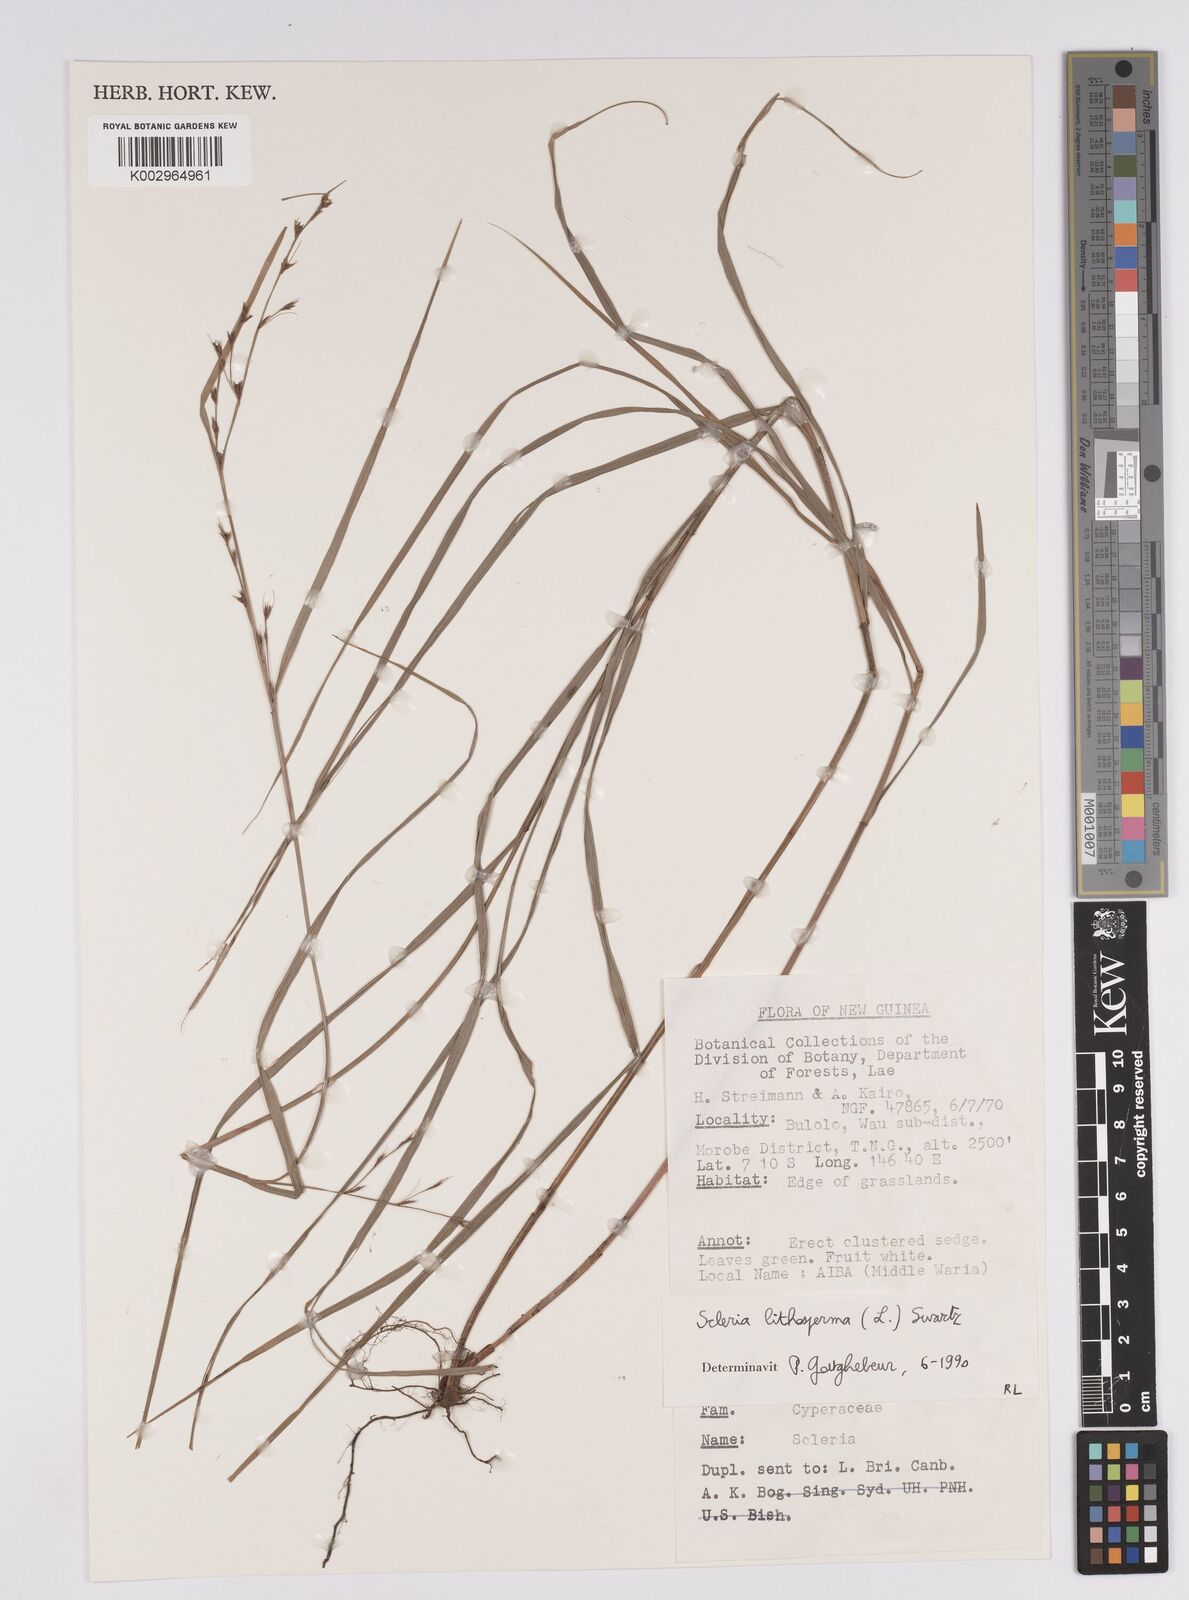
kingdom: Plantae
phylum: Tracheophyta
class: Liliopsida
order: Poales
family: Cyperaceae
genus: Scleria
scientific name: Scleria lithosperma
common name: Florida keys nut-rush
